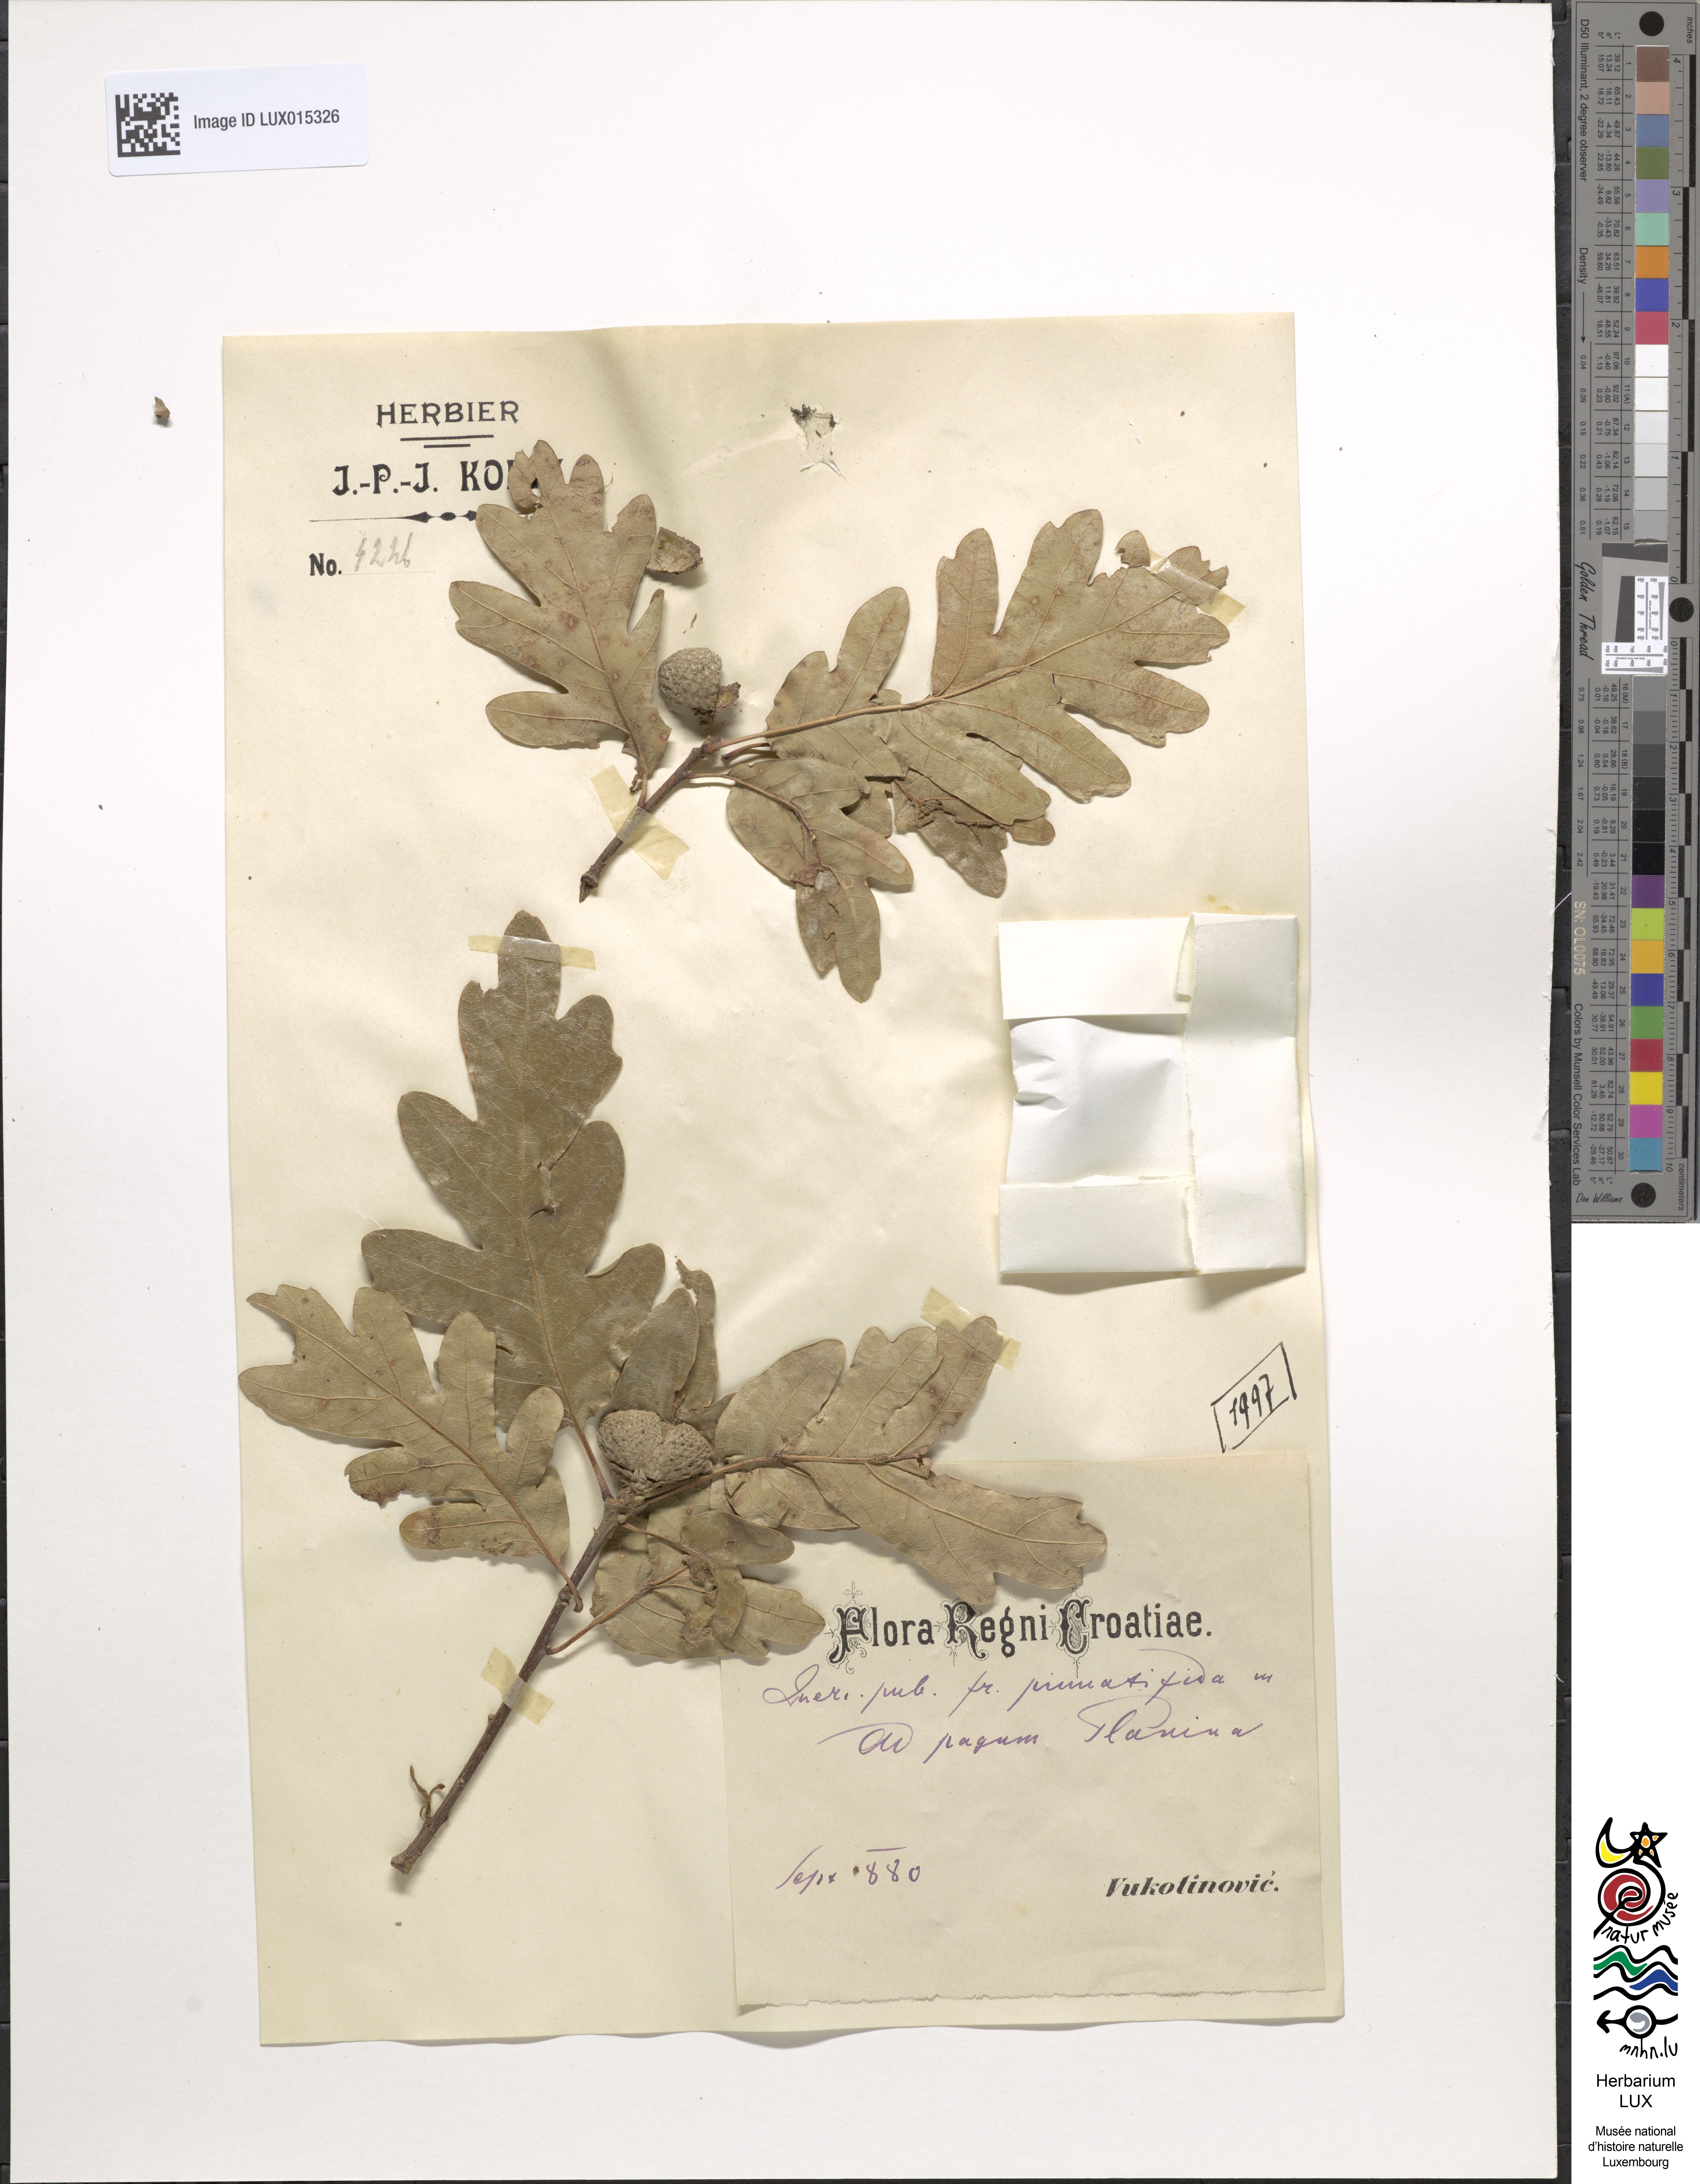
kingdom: Plantae
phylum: Tracheophyta
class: Magnoliopsida
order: Fagales
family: Fagaceae
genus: Quercus
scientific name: Quercus pubescens
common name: Downy oak
